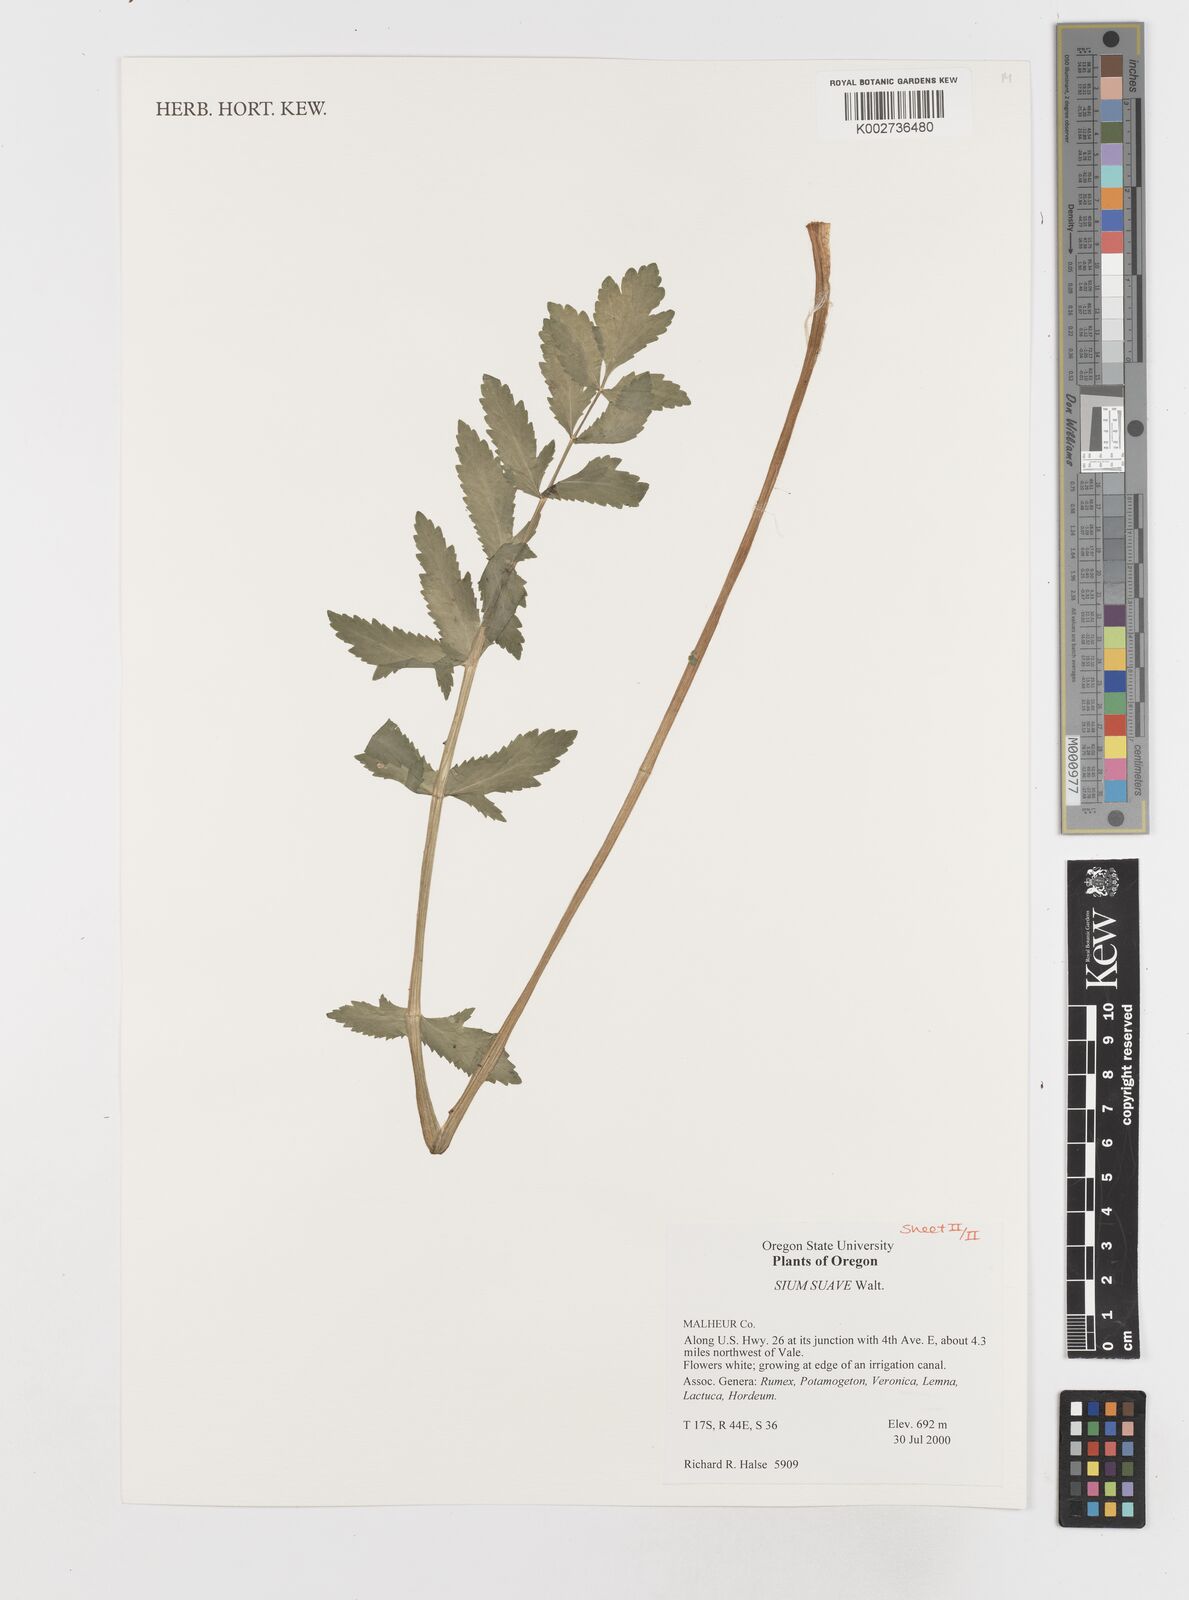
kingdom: Plantae
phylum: Tracheophyta
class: Magnoliopsida
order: Apiales
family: Apiaceae
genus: Sium
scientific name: Sium suave
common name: Hemlock water-parsnip
